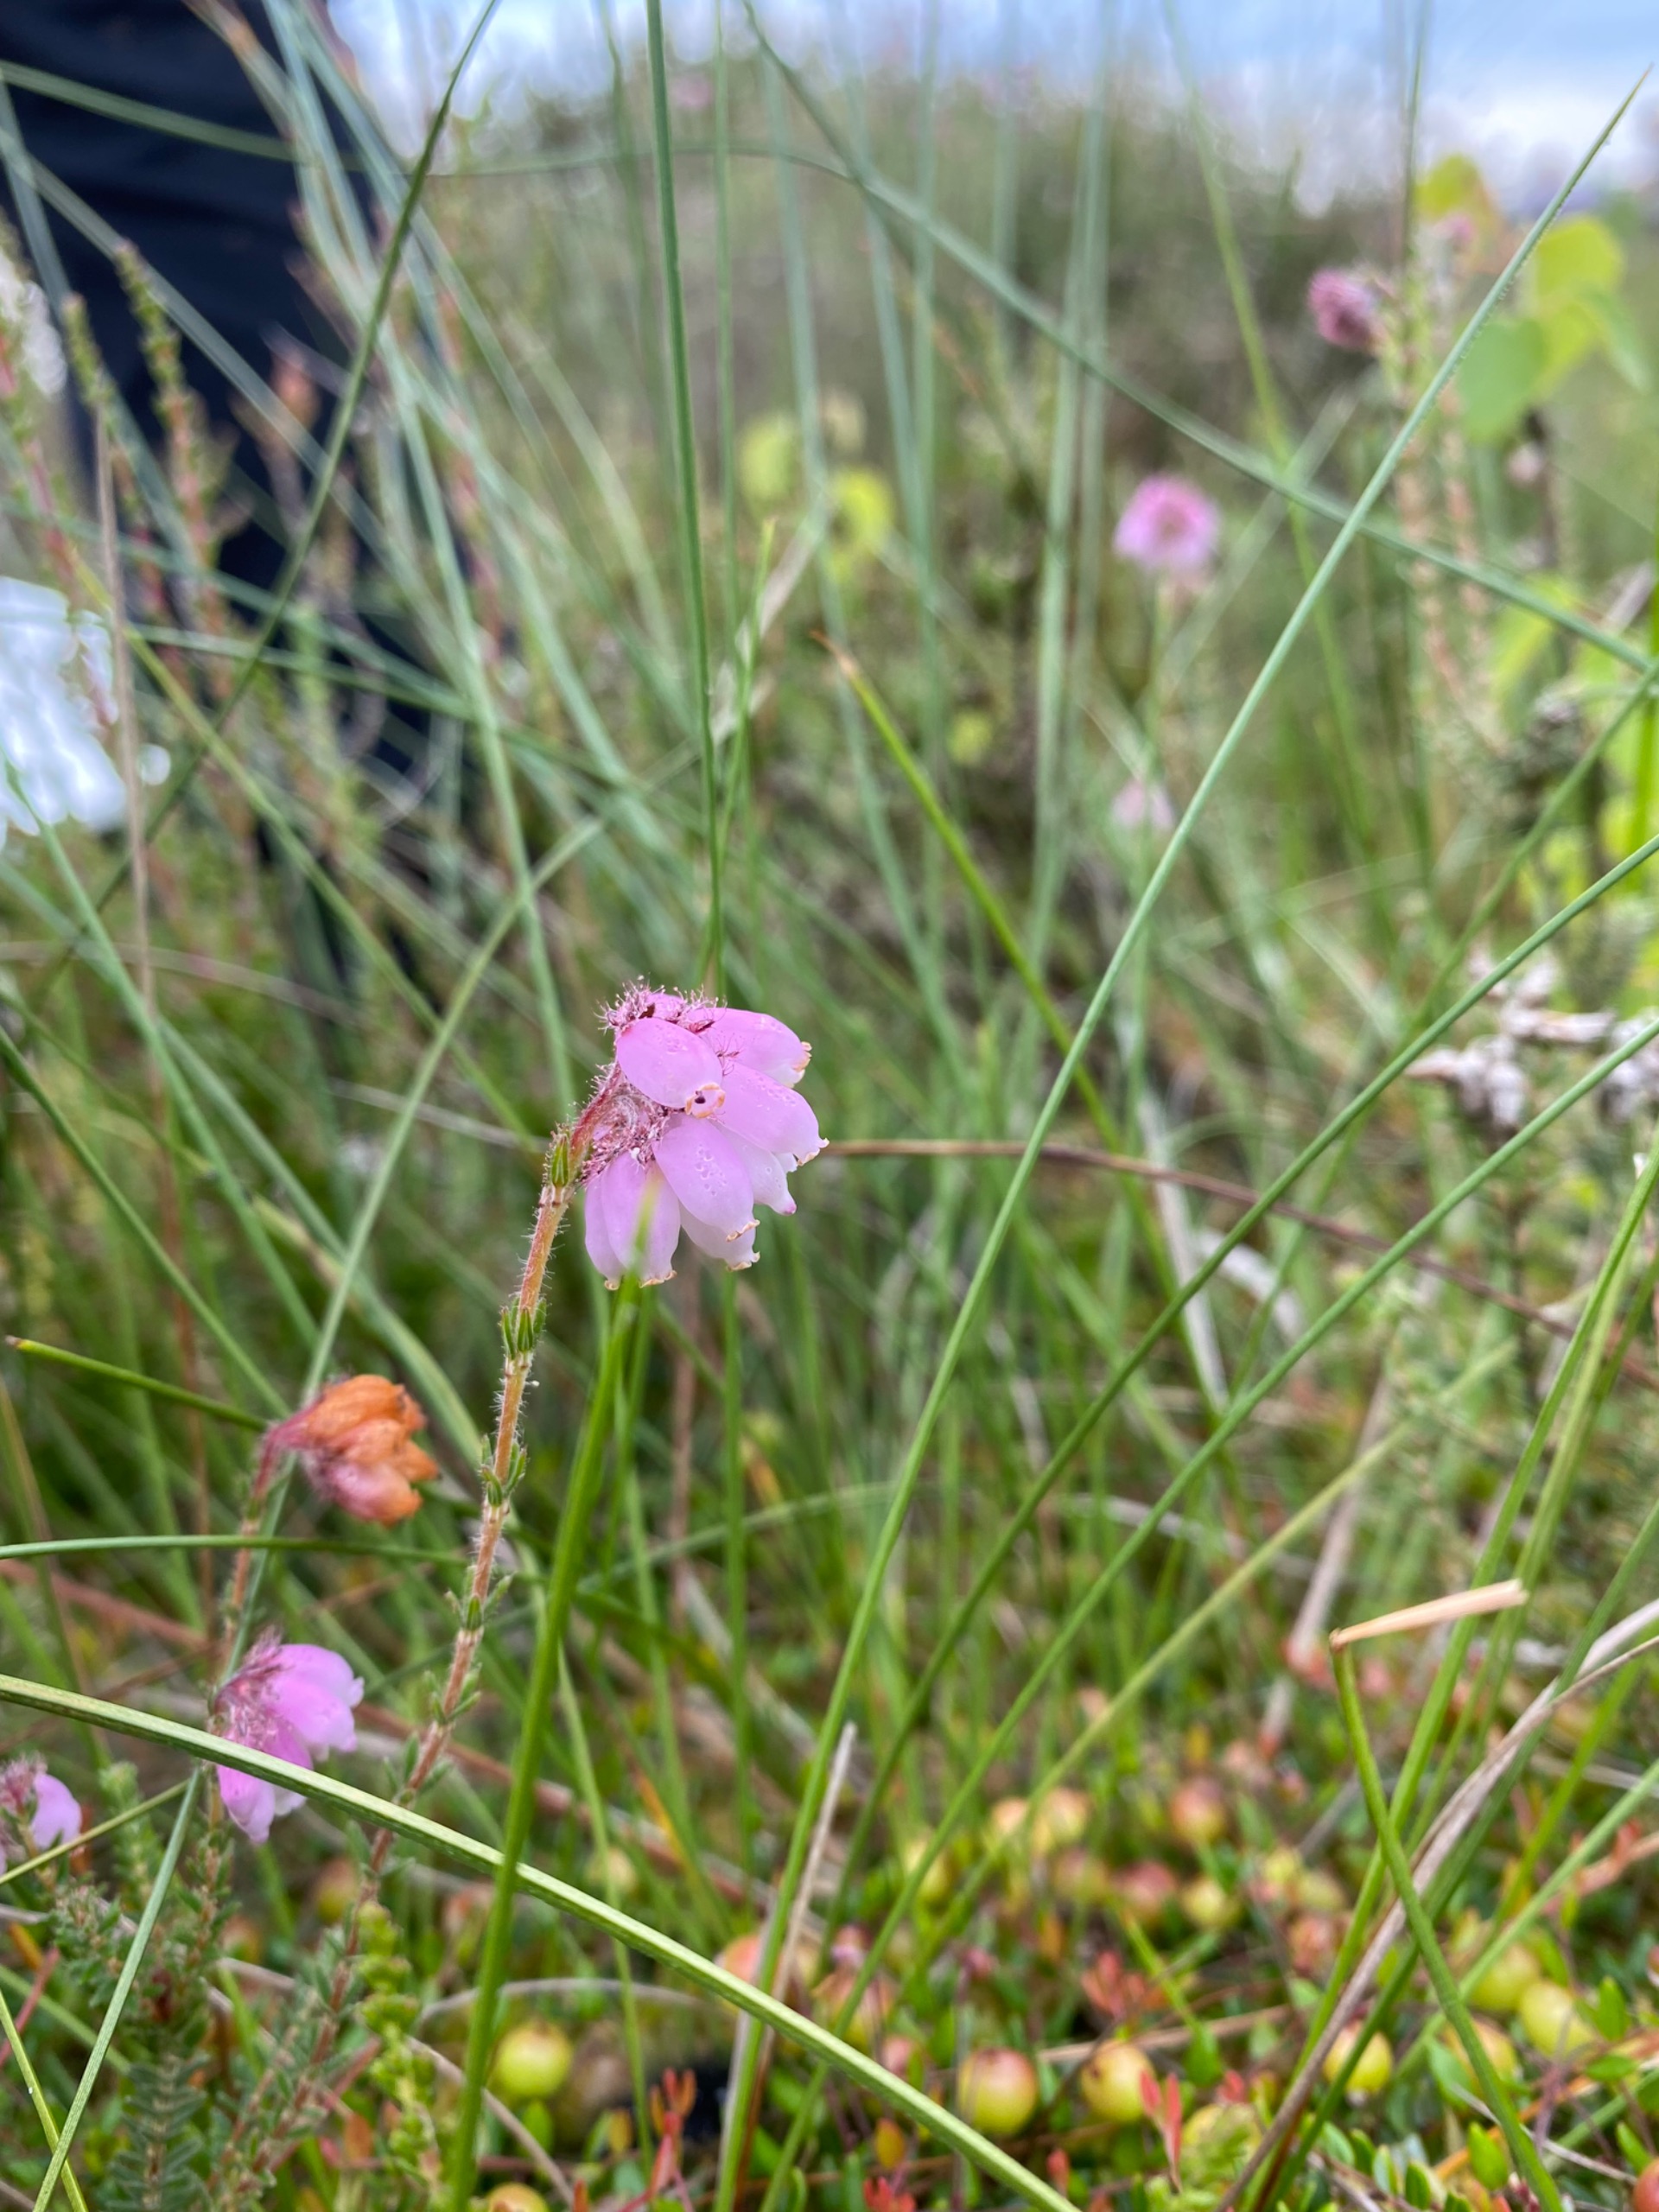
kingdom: Plantae
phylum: Tracheophyta
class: Magnoliopsida
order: Ericales
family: Ericaceae
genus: Erica
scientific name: Erica tetralix
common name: Klokkelyng
